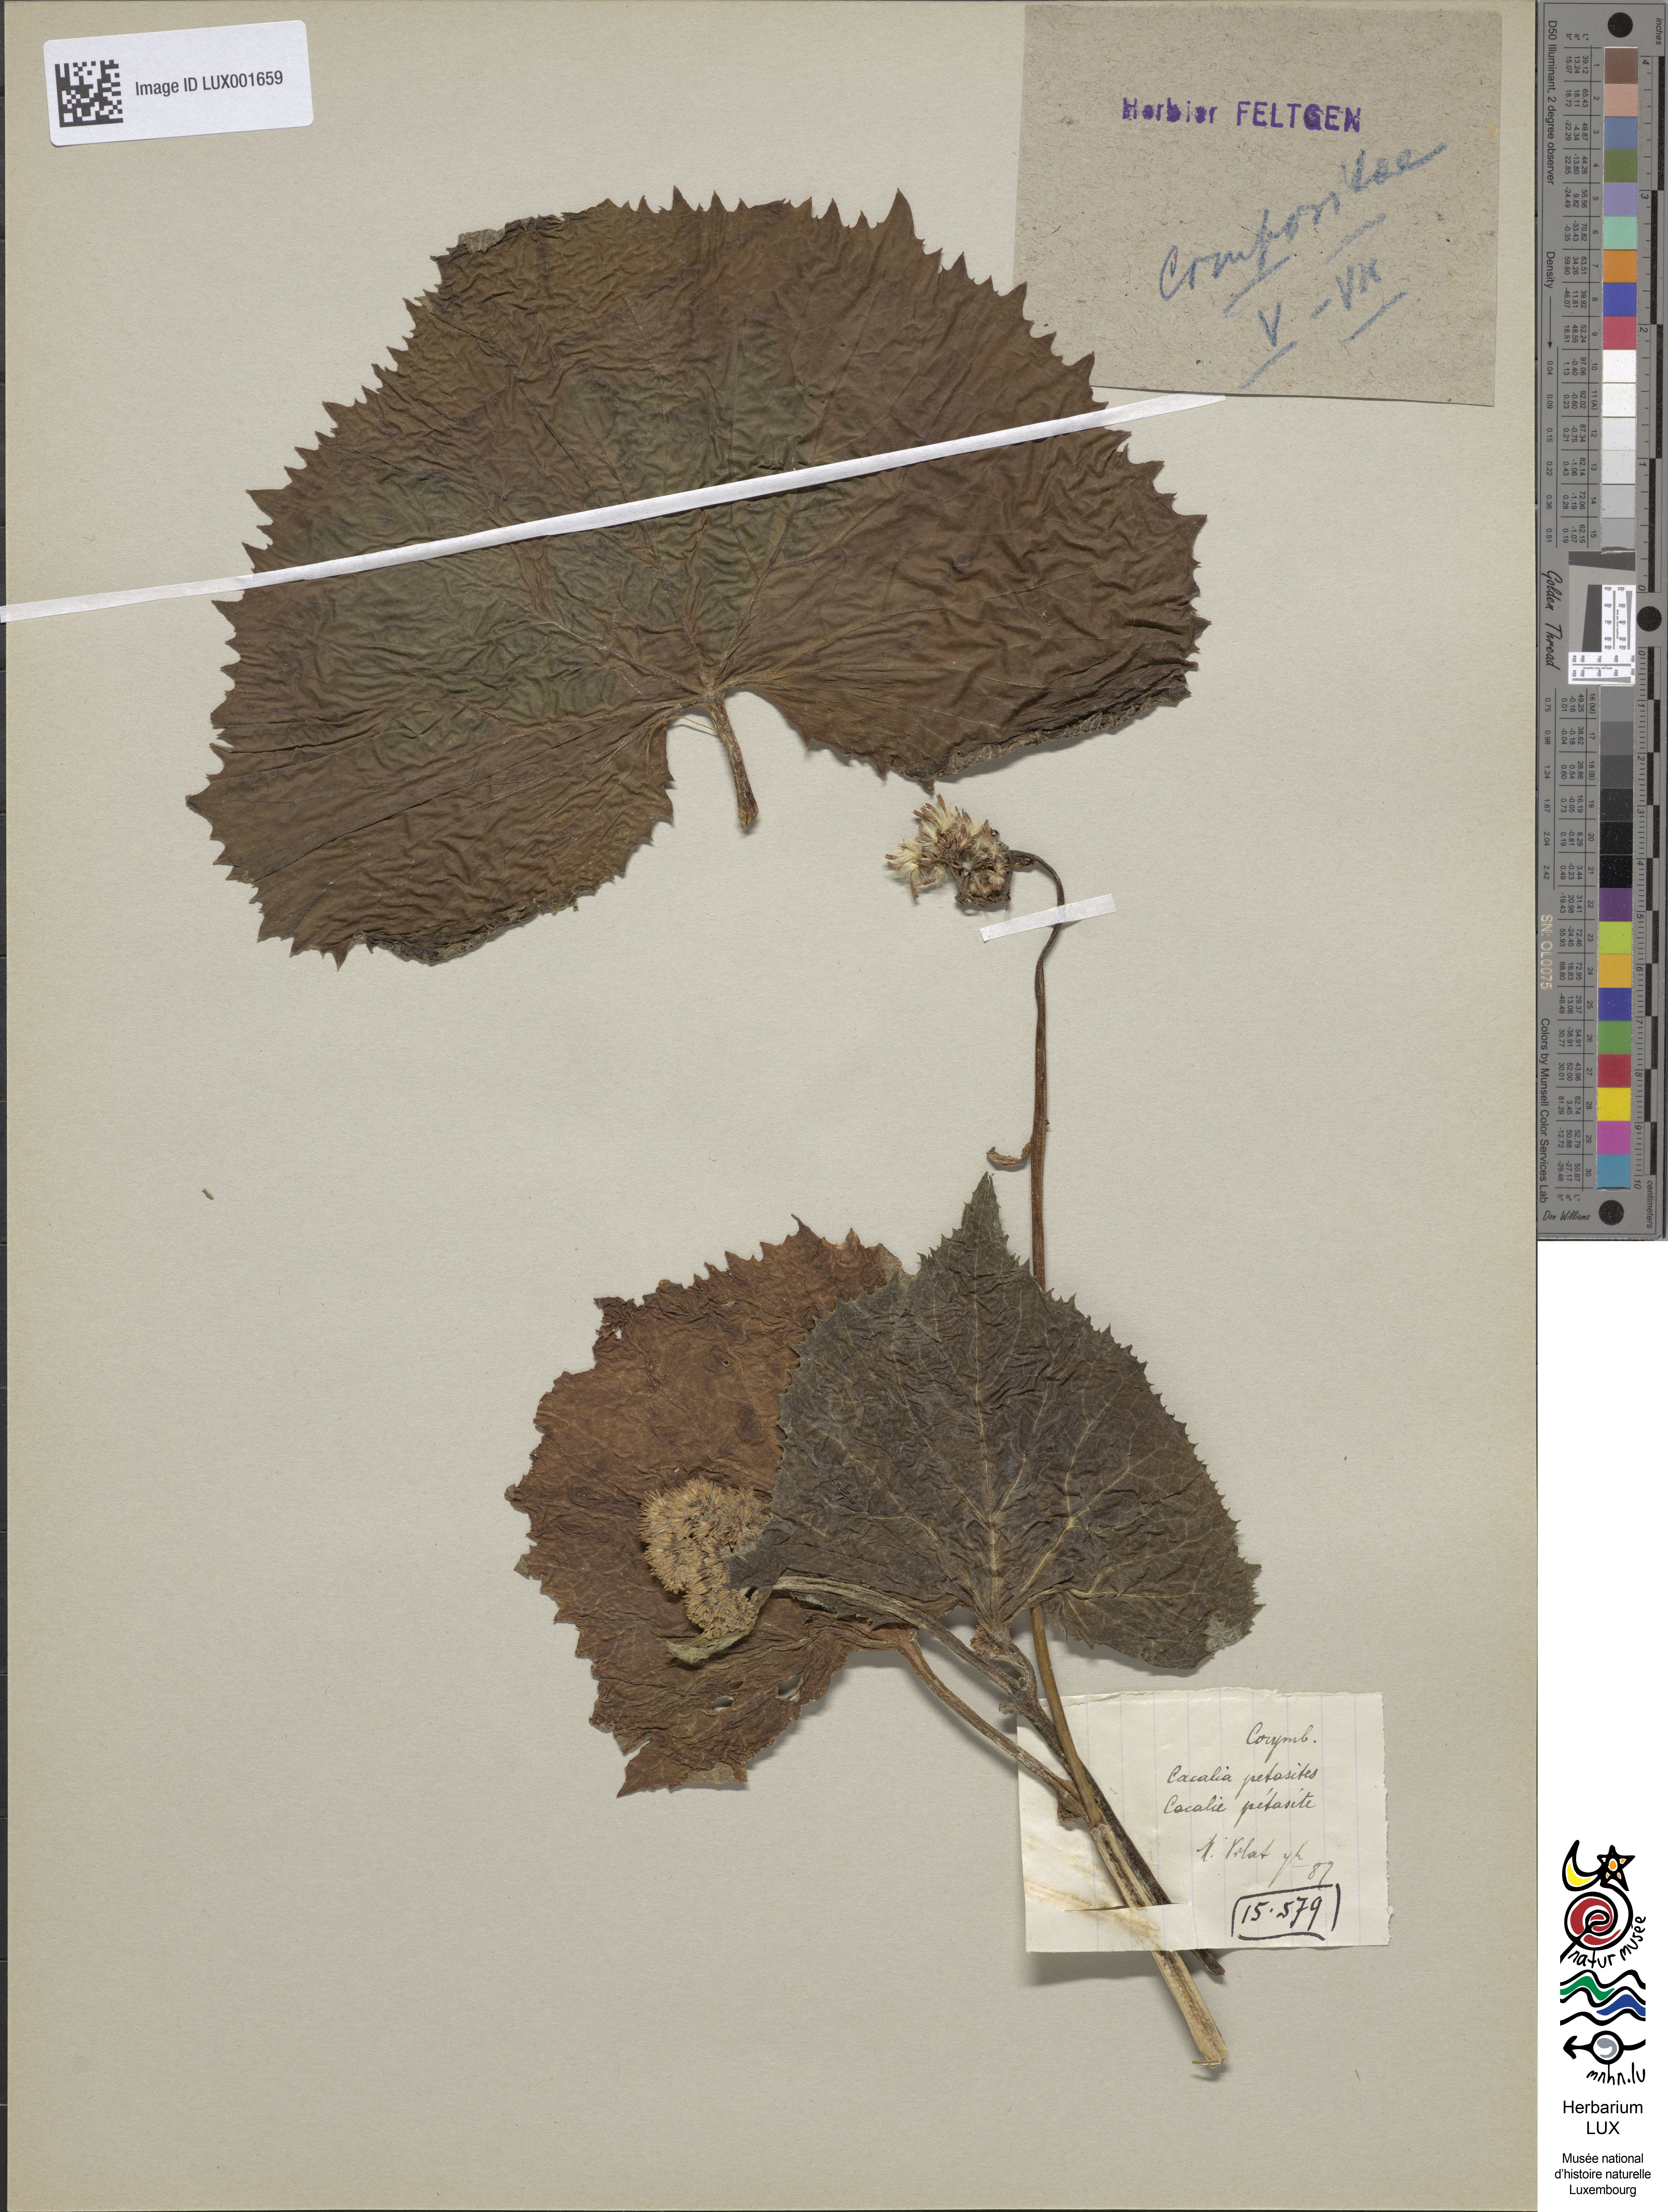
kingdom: Plantae
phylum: Tracheophyta
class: Magnoliopsida
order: Asterales
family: Asteraceae
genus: Adenostyles
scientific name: Adenostyles alliariae
